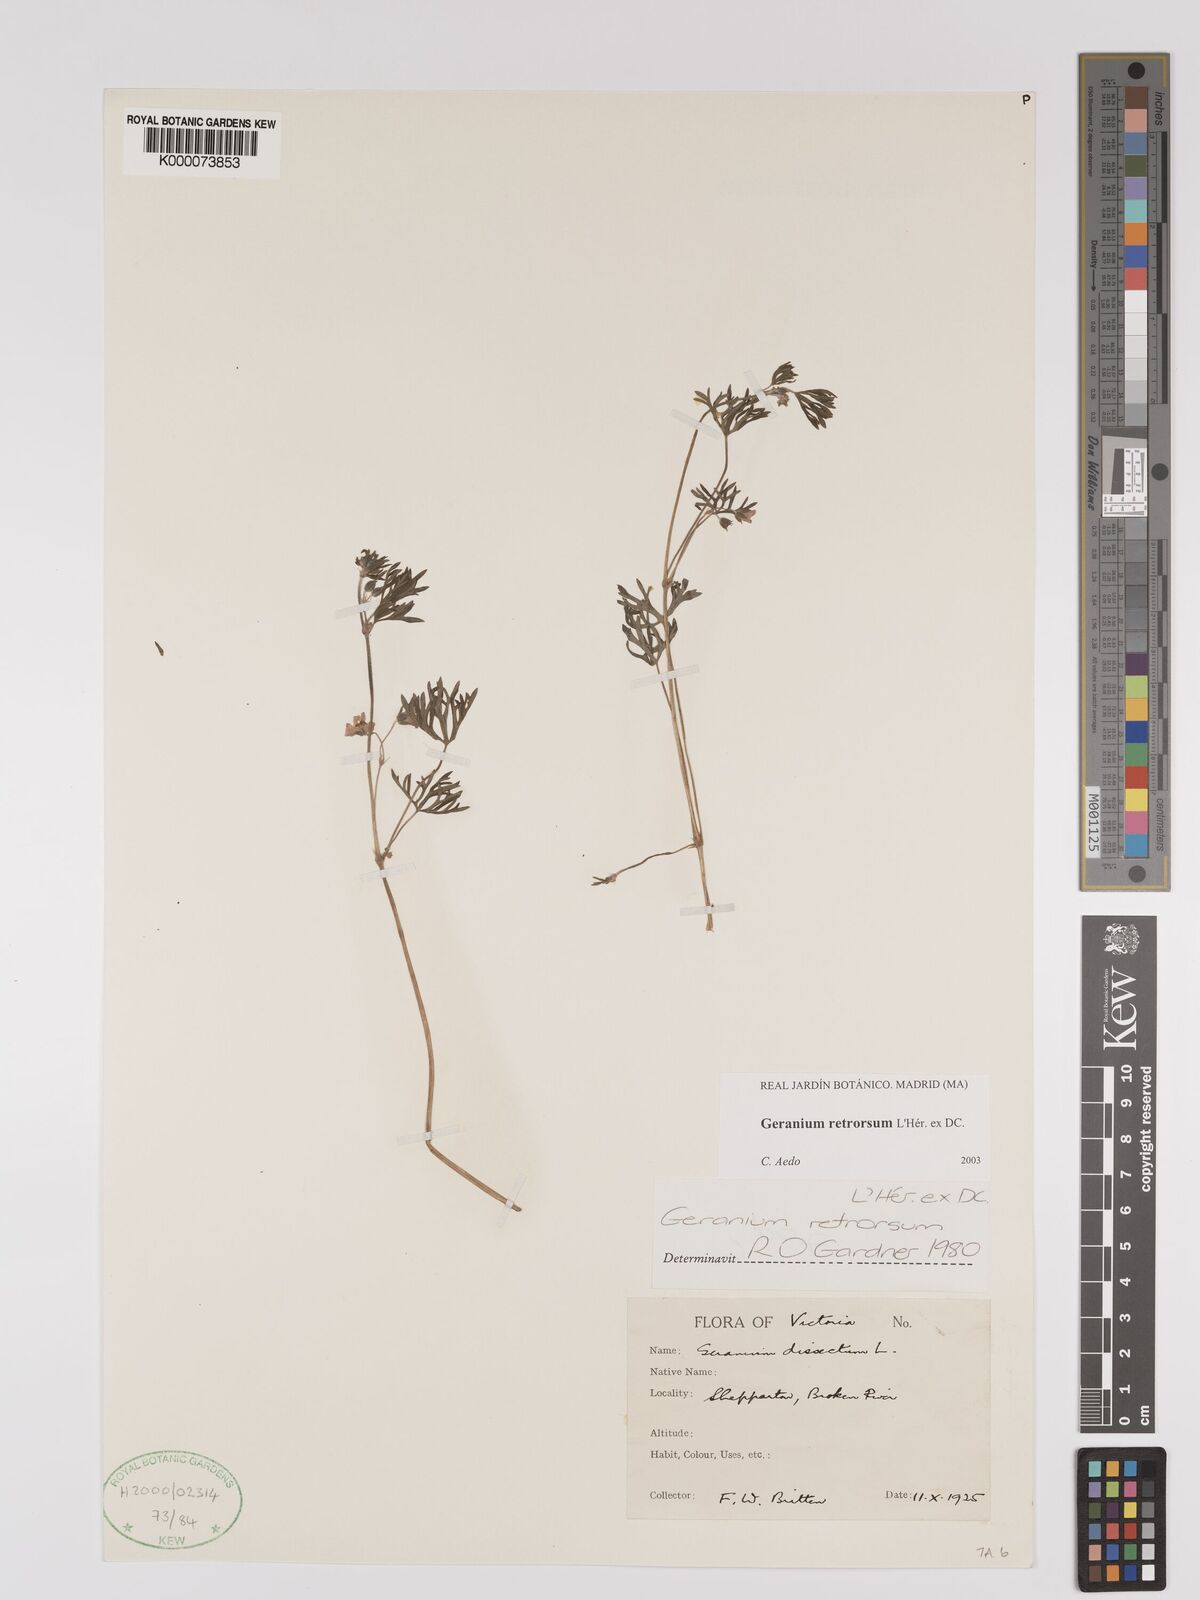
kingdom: Plantae
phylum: Tracheophyta
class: Magnoliopsida
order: Geraniales
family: Geraniaceae
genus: Geranium
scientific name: Geranium retrorsum
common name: New zealand geranium
